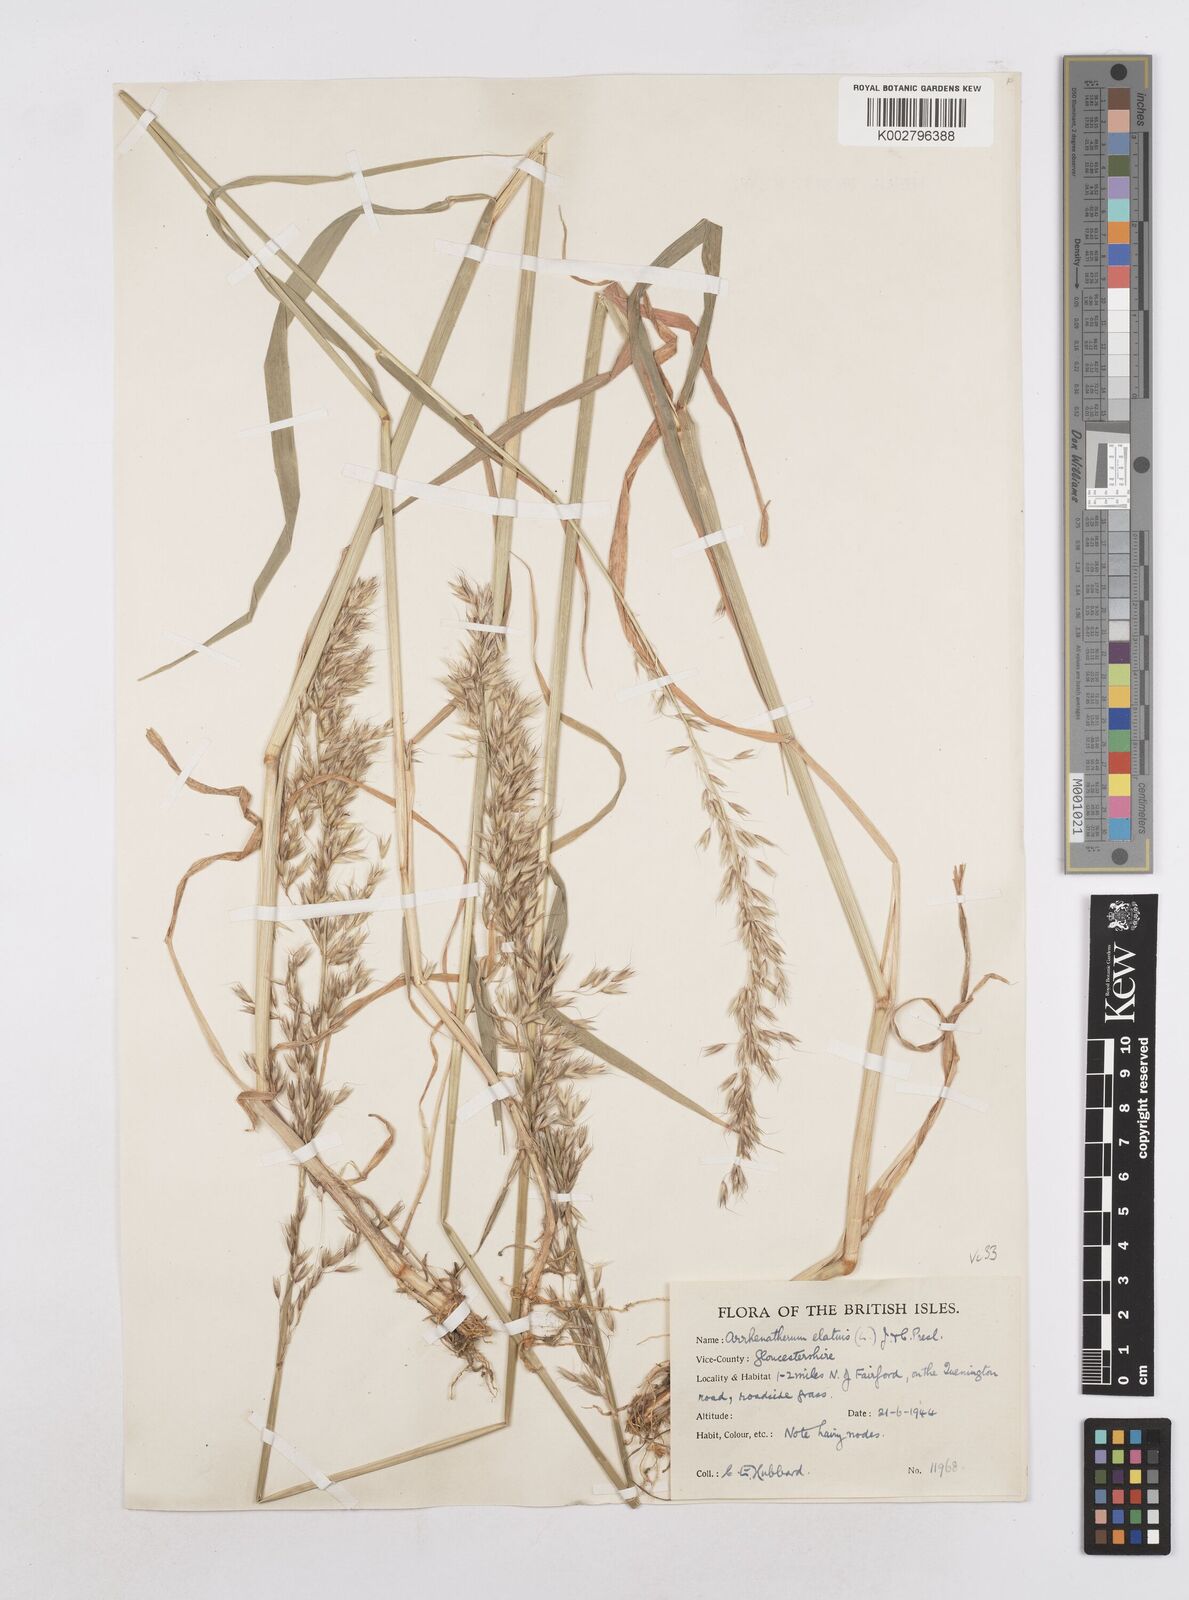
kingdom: Plantae
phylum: Tracheophyta
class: Liliopsida
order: Poales
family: Poaceae
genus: Arrhenatherum
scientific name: Arrhenatherum elatius
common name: Tall oatgrass
